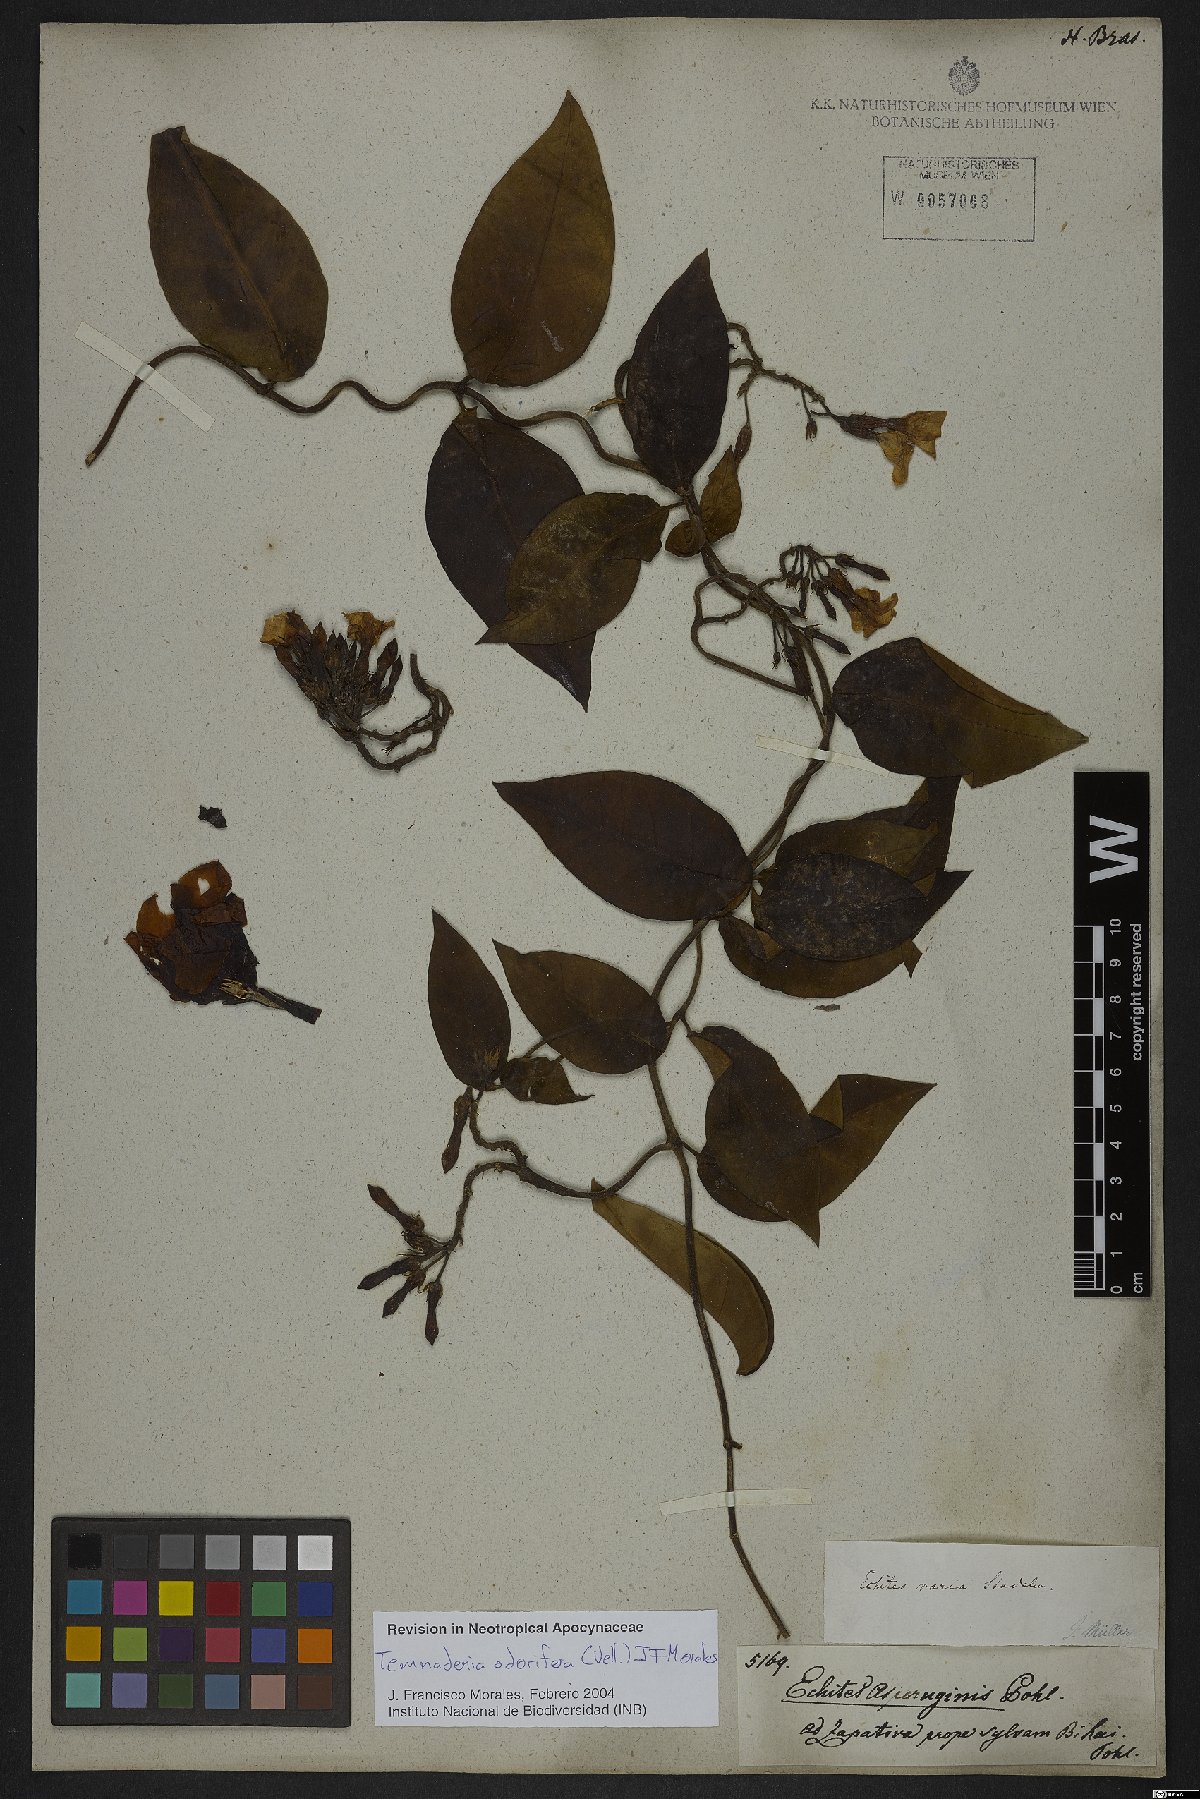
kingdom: Plantae
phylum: Tracheophyta
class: Magnoliopsida
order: Gentianales
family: Apocynaceae
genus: Temnadenia
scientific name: Temnadenia odorifera
